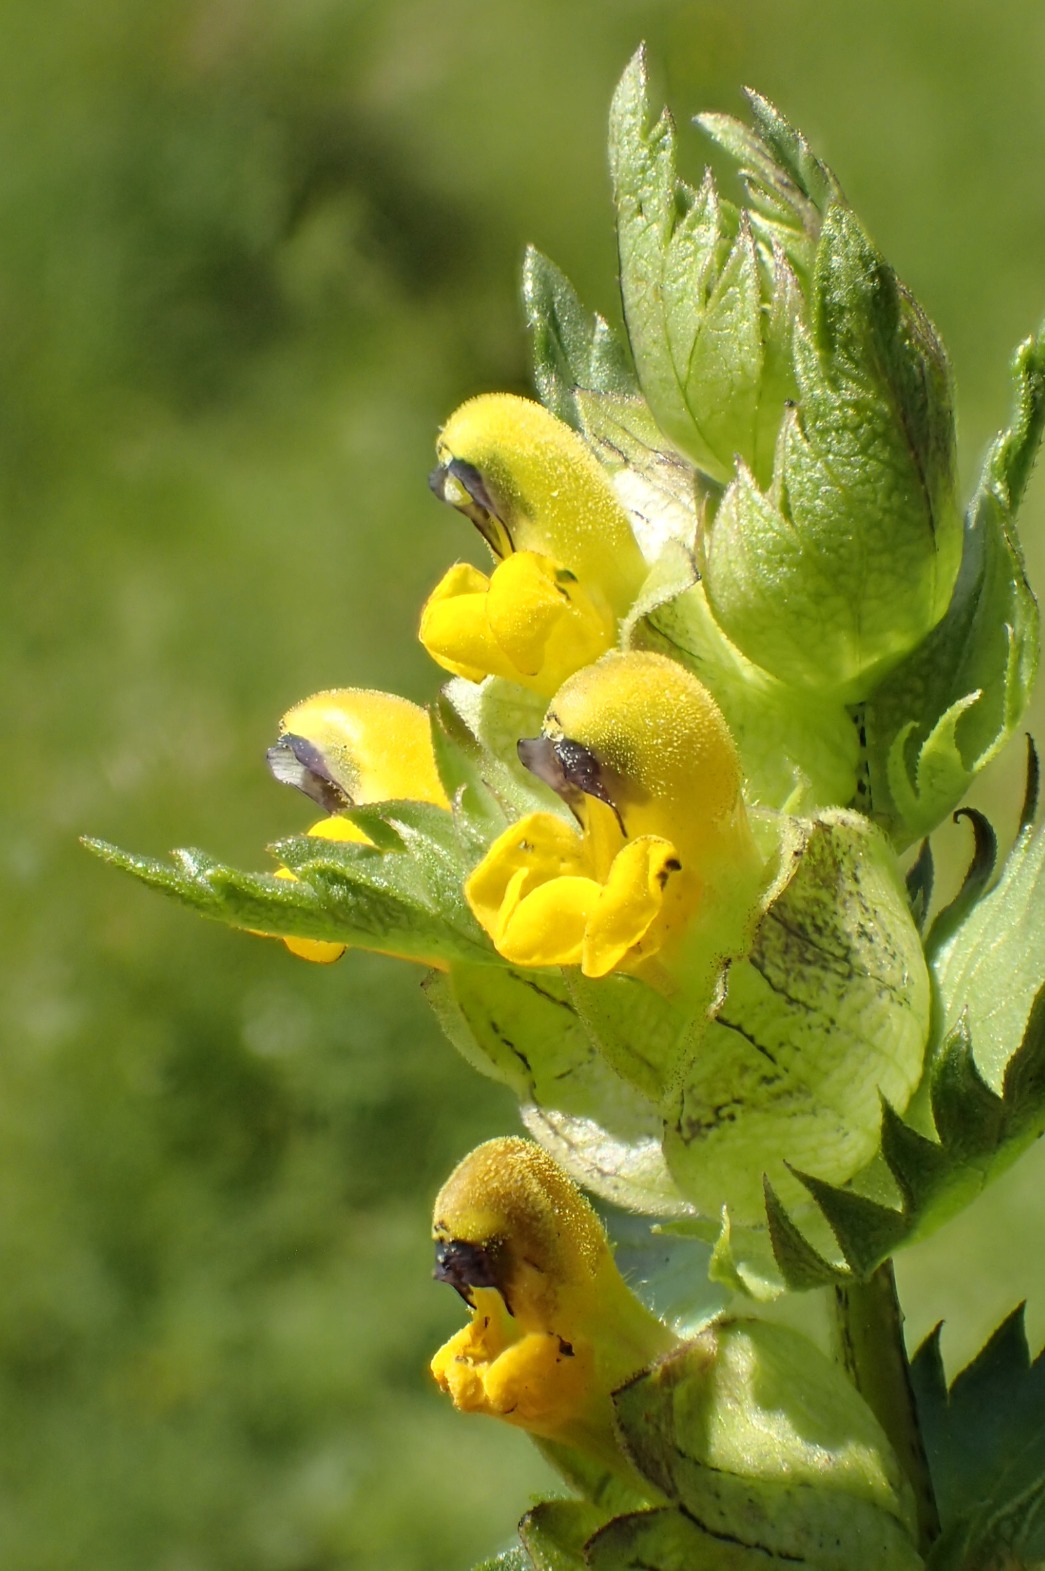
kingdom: Plantae
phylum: Tracheophyta
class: Magnoliopsida
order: Lamiales
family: Orobanchaceae
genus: Rhinanthus
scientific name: Rhinanthus minor
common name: Liden skjaller
